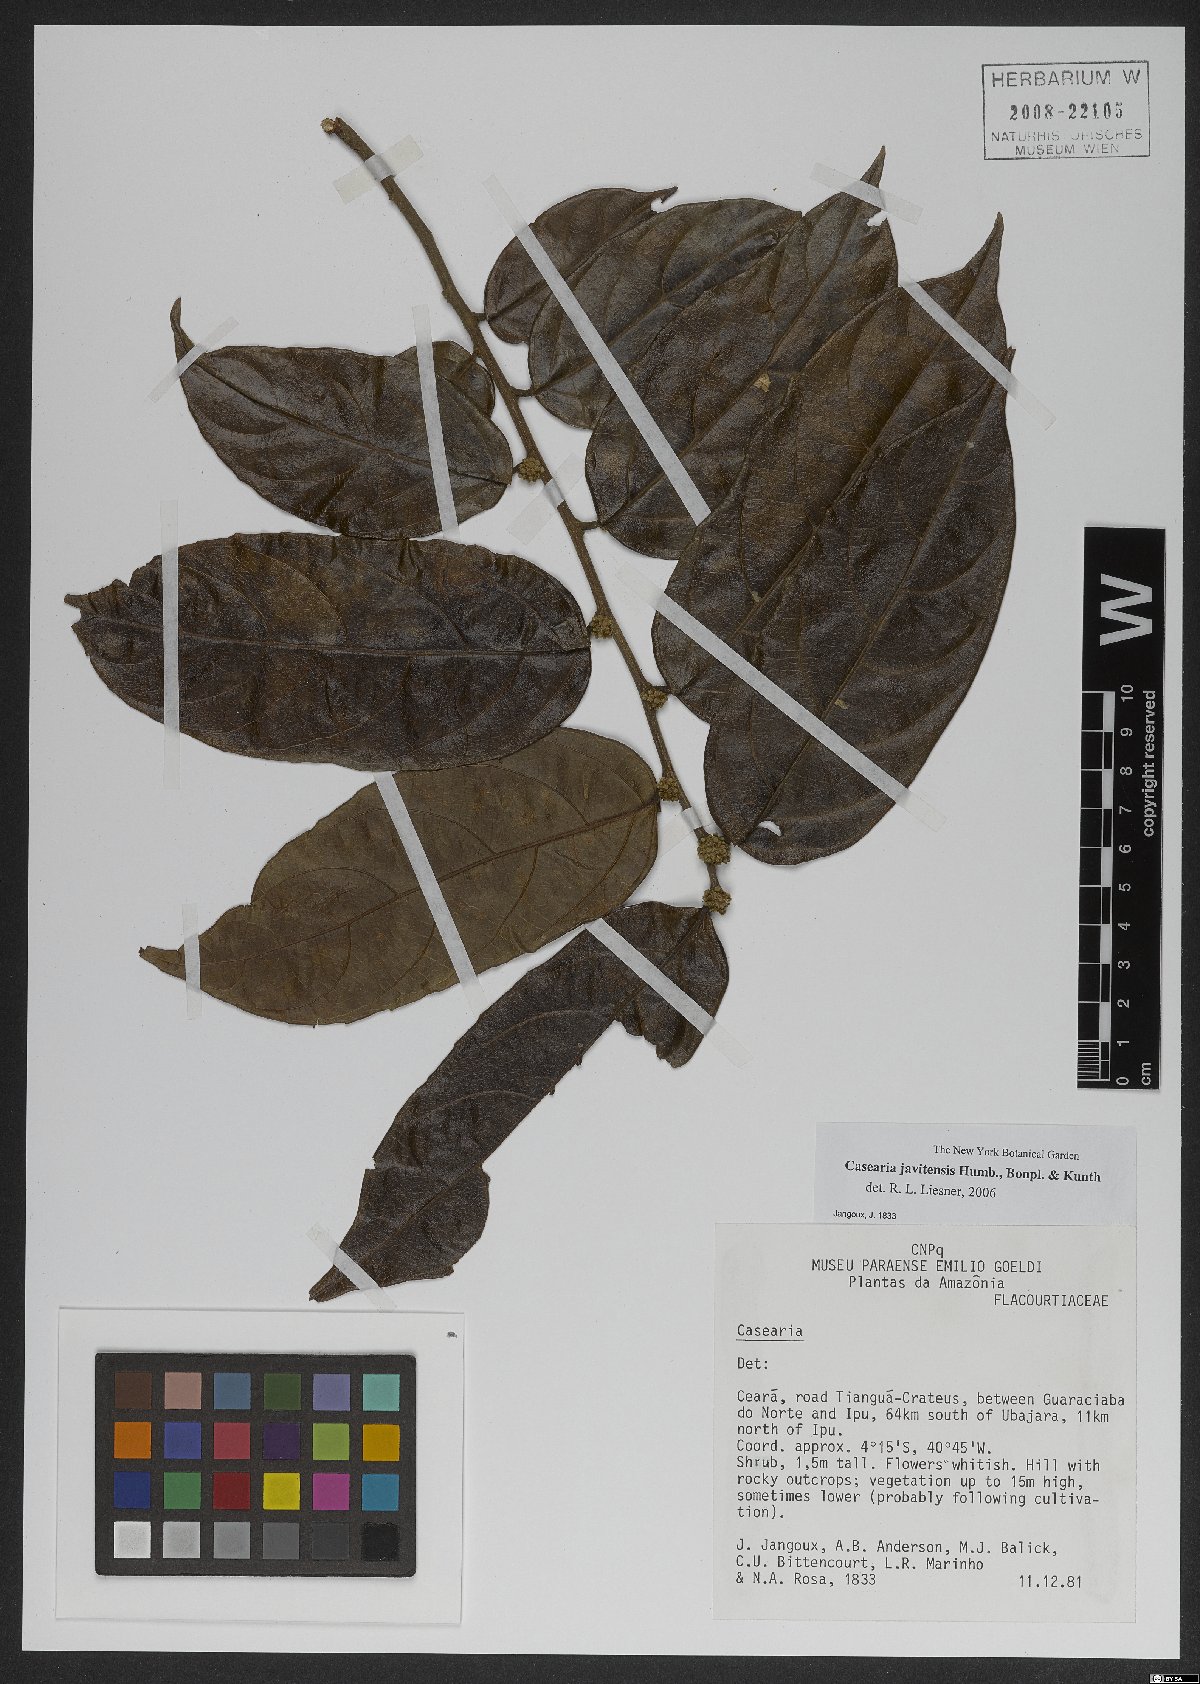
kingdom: Plantae
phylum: Tracheophyta
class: Magnoliopsida
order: Malpighiales
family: Salicaceae
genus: Piparea
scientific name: Piparea multiflora
